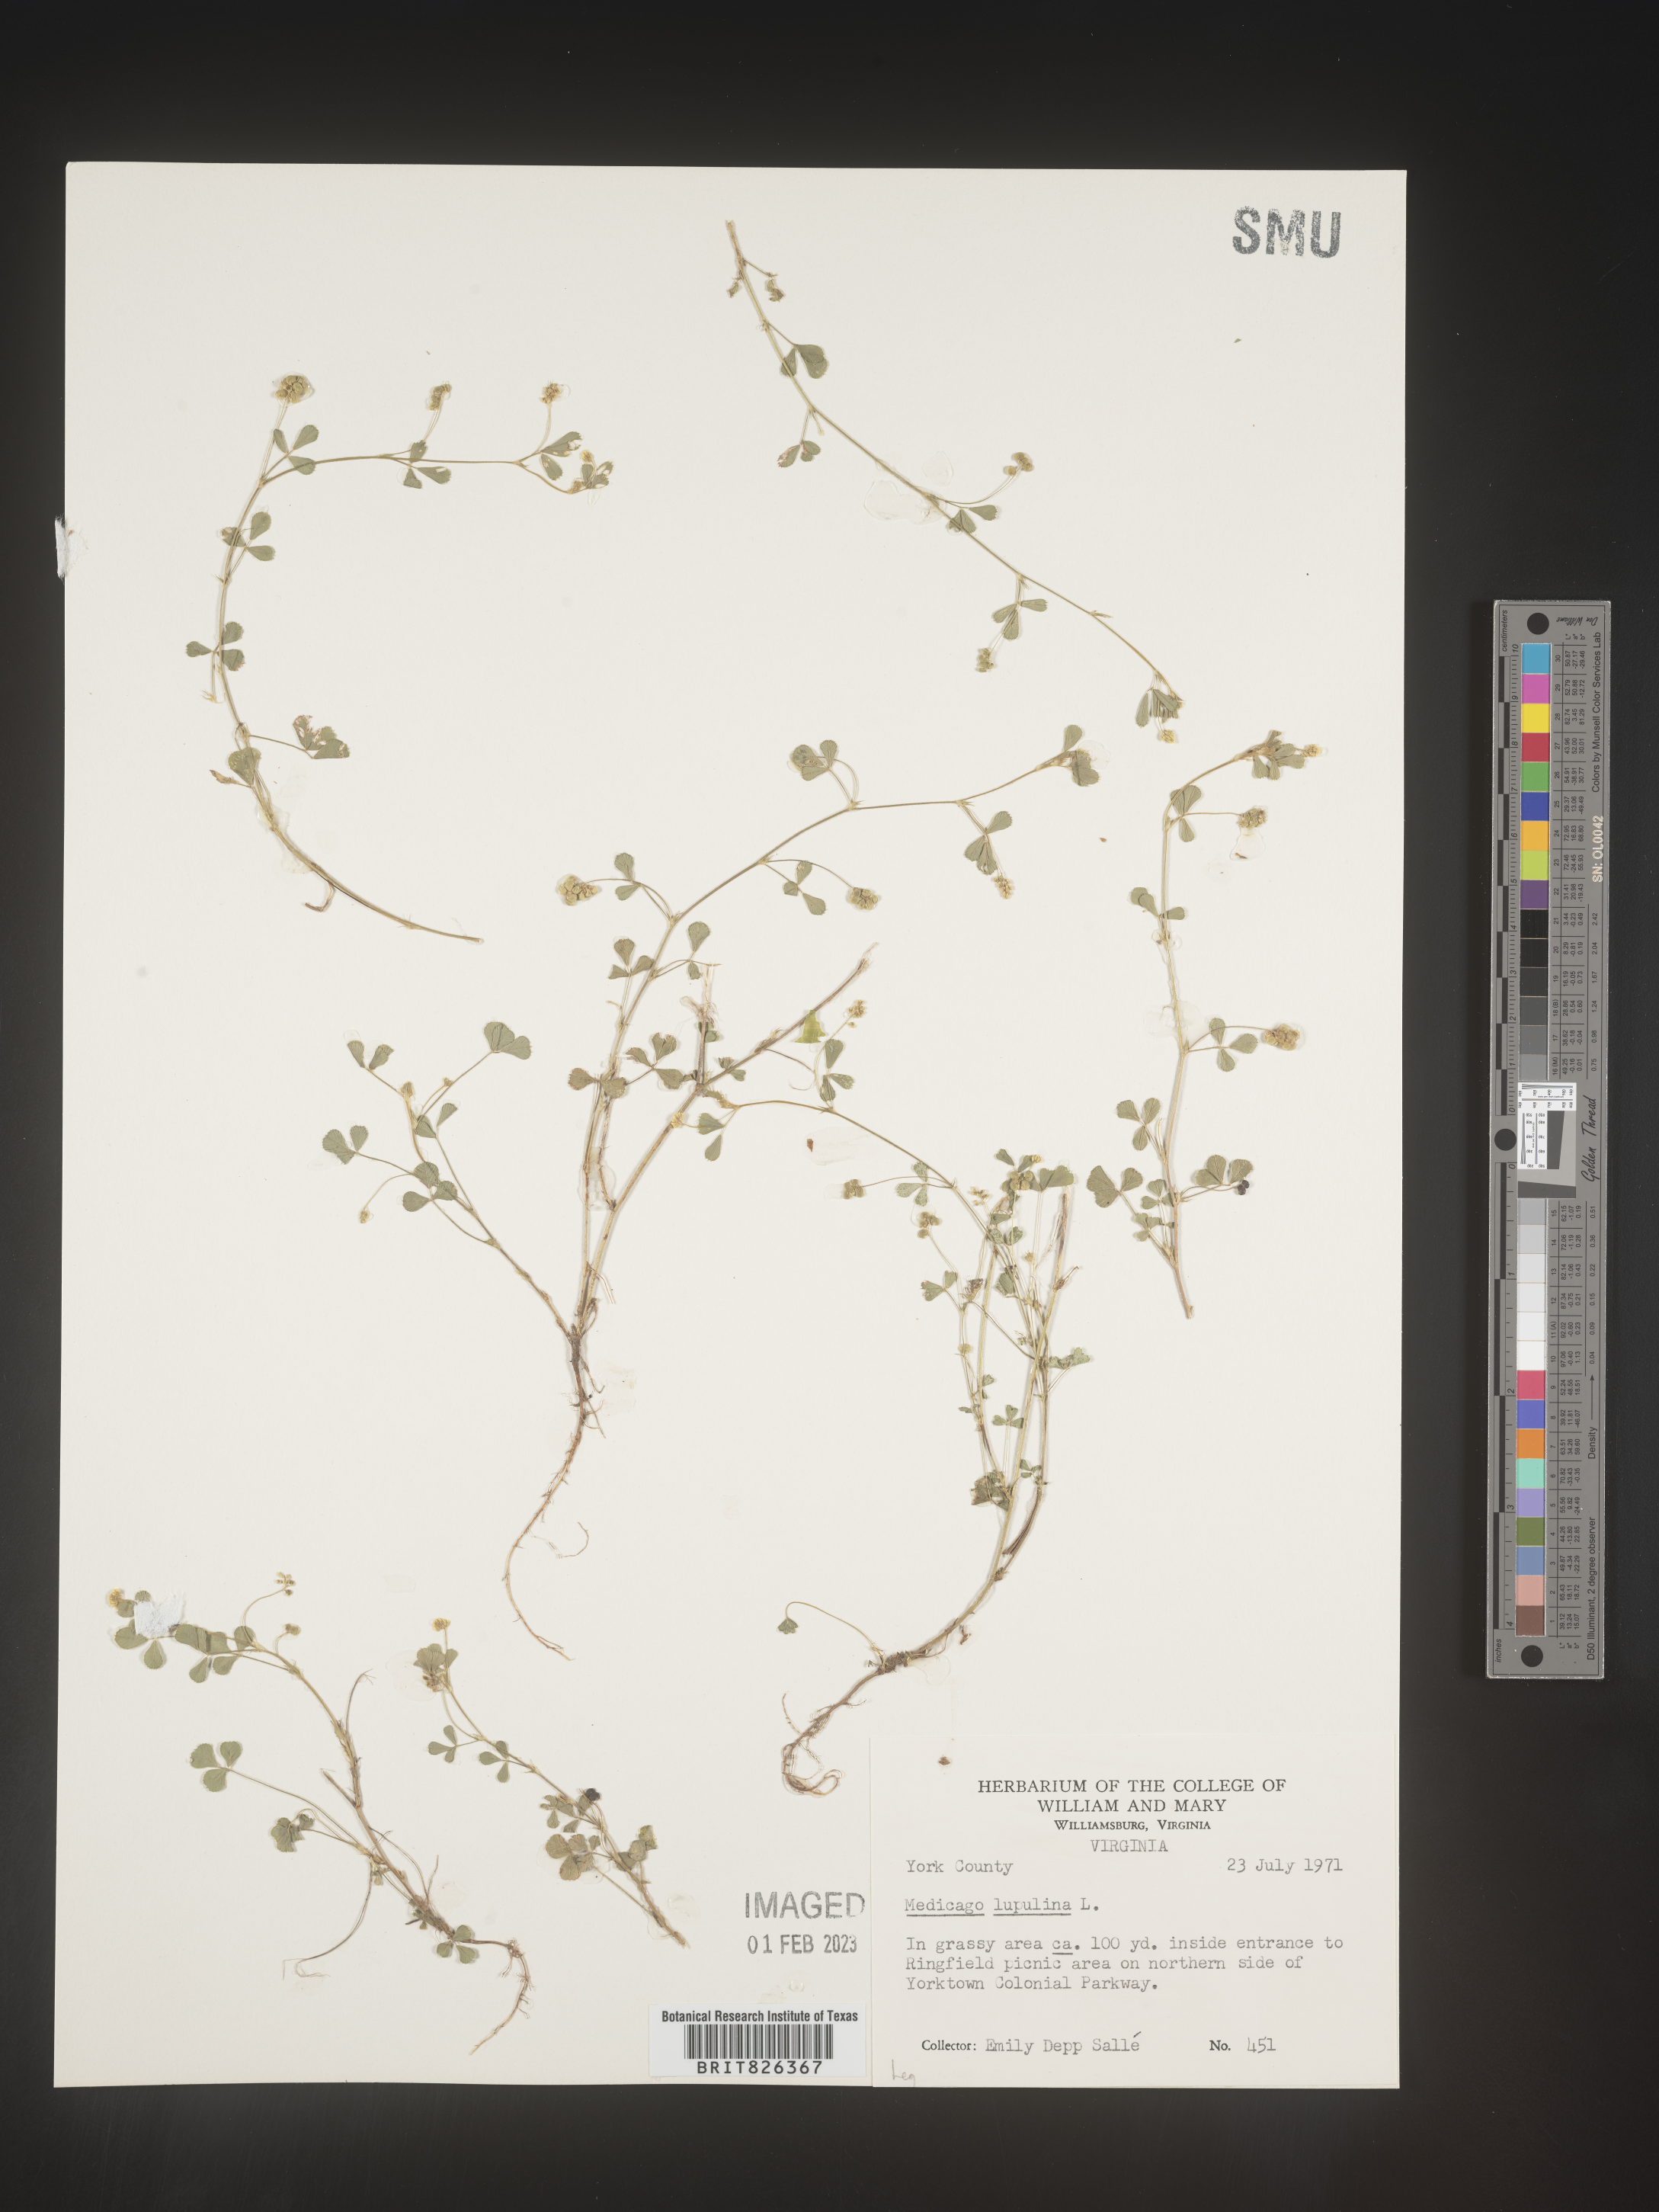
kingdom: Plantae
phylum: Tracheophyta
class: Magnoliopsida
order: Fabales
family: Fabaceae
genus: Medicago
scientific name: Medicago lupulina
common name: Black medick
